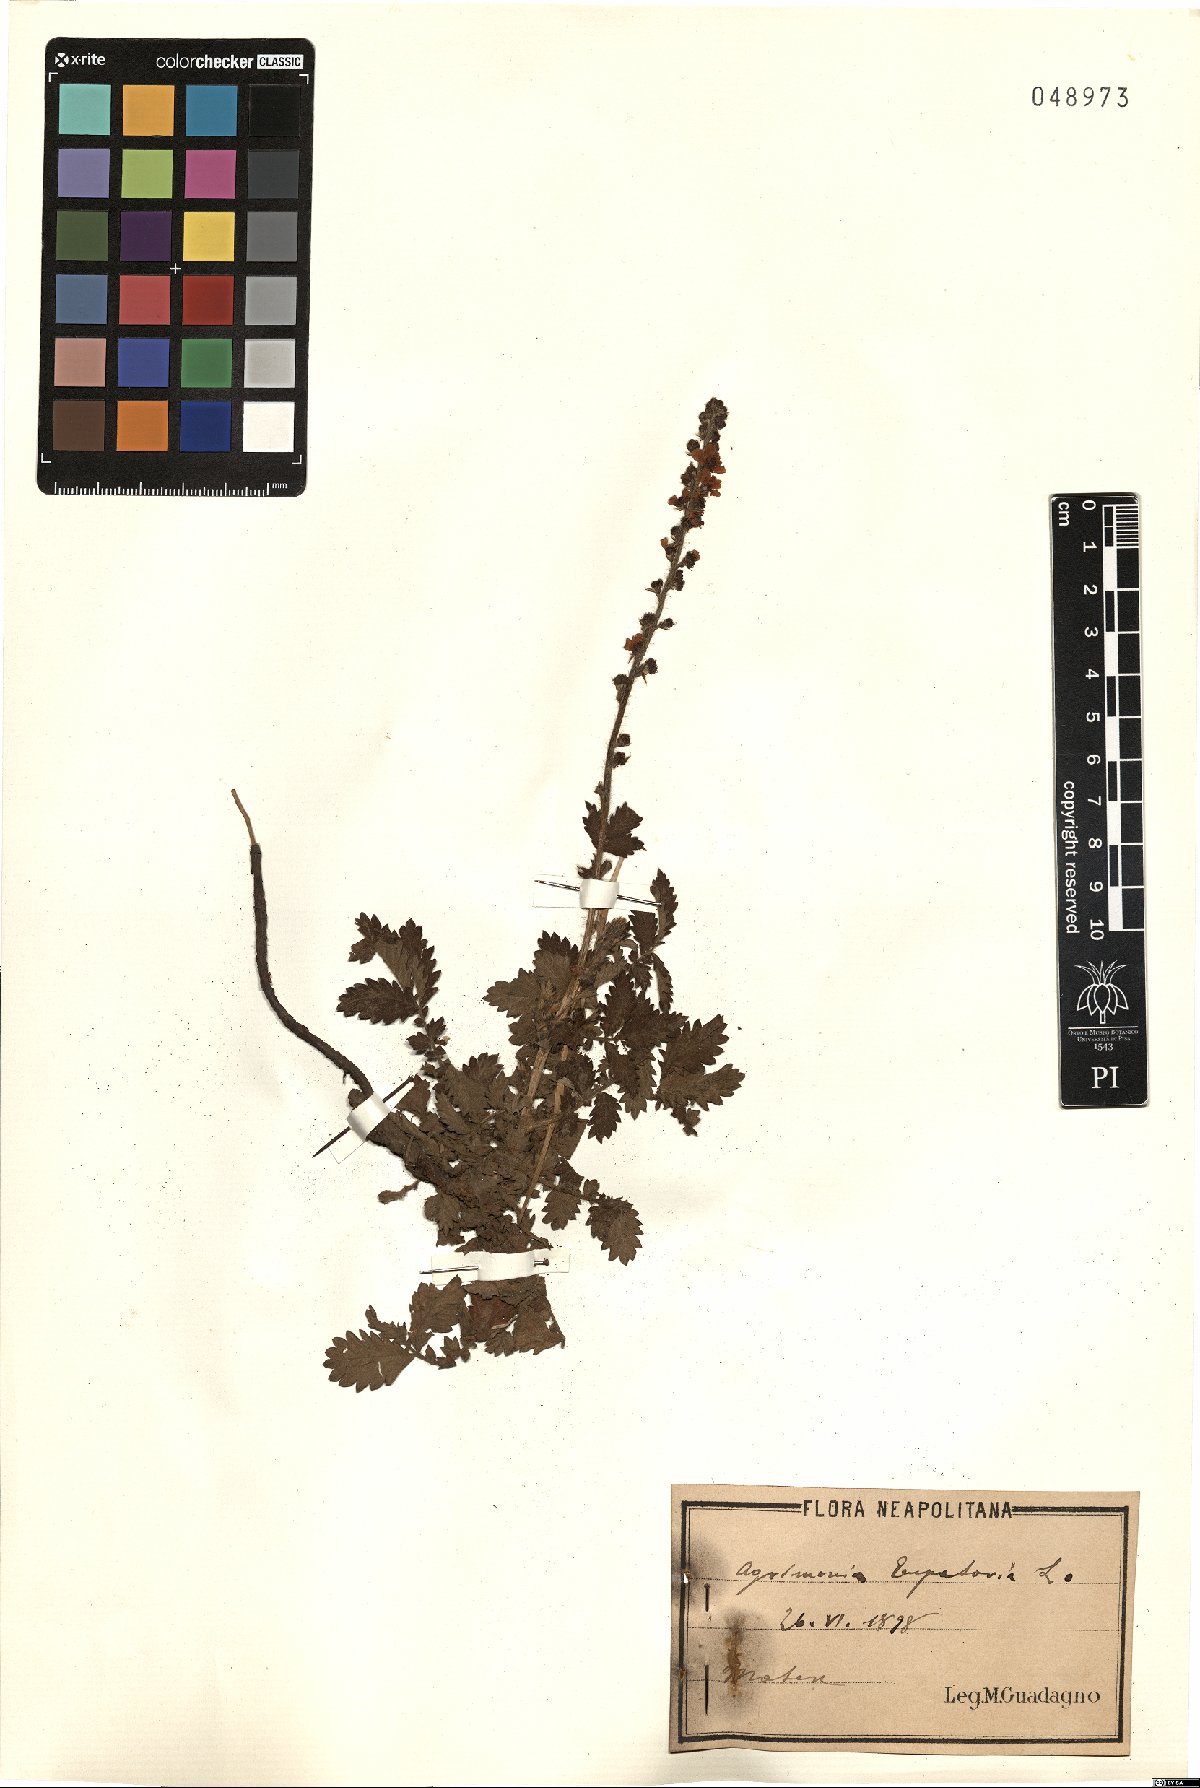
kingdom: Plantae
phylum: Tracheophyta
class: Magnoliopsida
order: Rosales
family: Rosaceae
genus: Agrimonia
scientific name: Agrimonia eupatoria
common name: Agrimony
